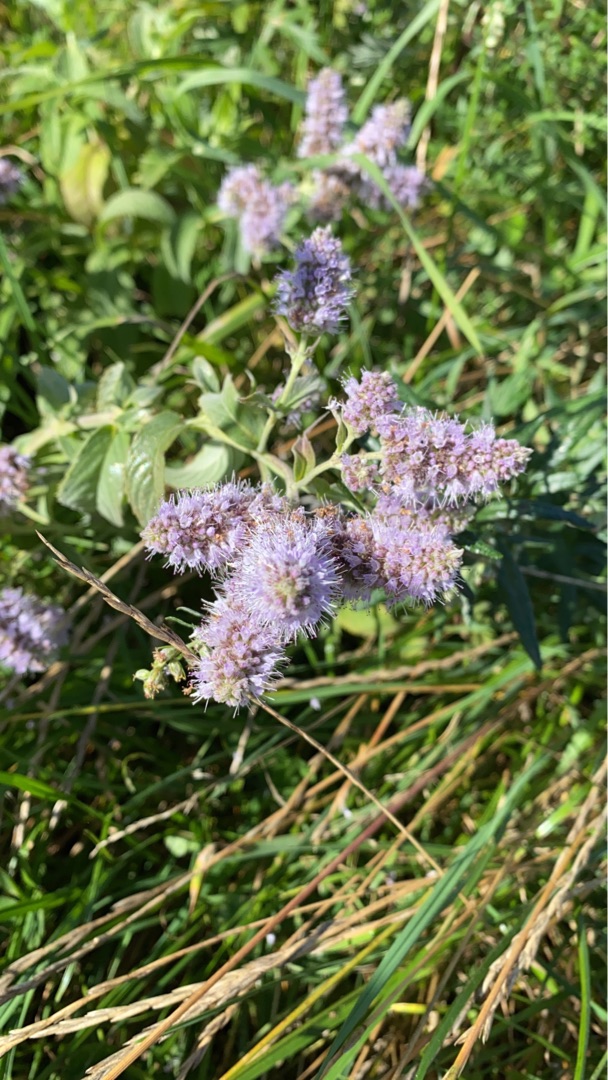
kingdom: Plantae
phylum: Tracheophyta
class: Magnoliopsida
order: Lamiales
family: Lamiaceae
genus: Mentha
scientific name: Mentha rotundifolia
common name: Grå mynte × rundbladet mynte
